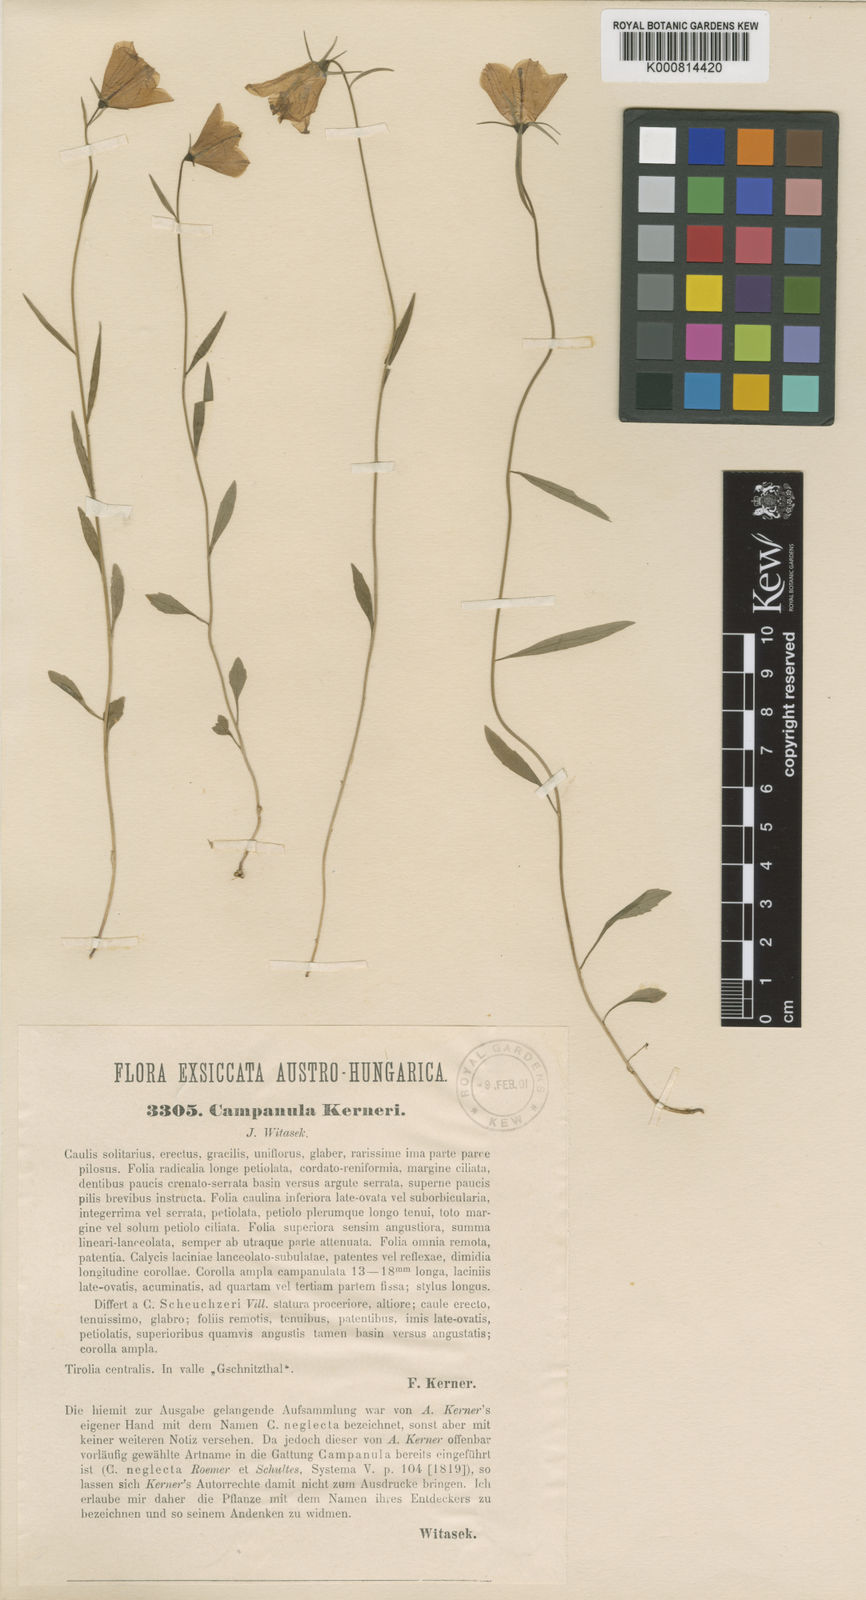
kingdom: Plantae
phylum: Tracheophyta
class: Magnoliopsida
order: Asterales
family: Campanulaceae
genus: Campanula
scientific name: Campanula scheuchzeri
